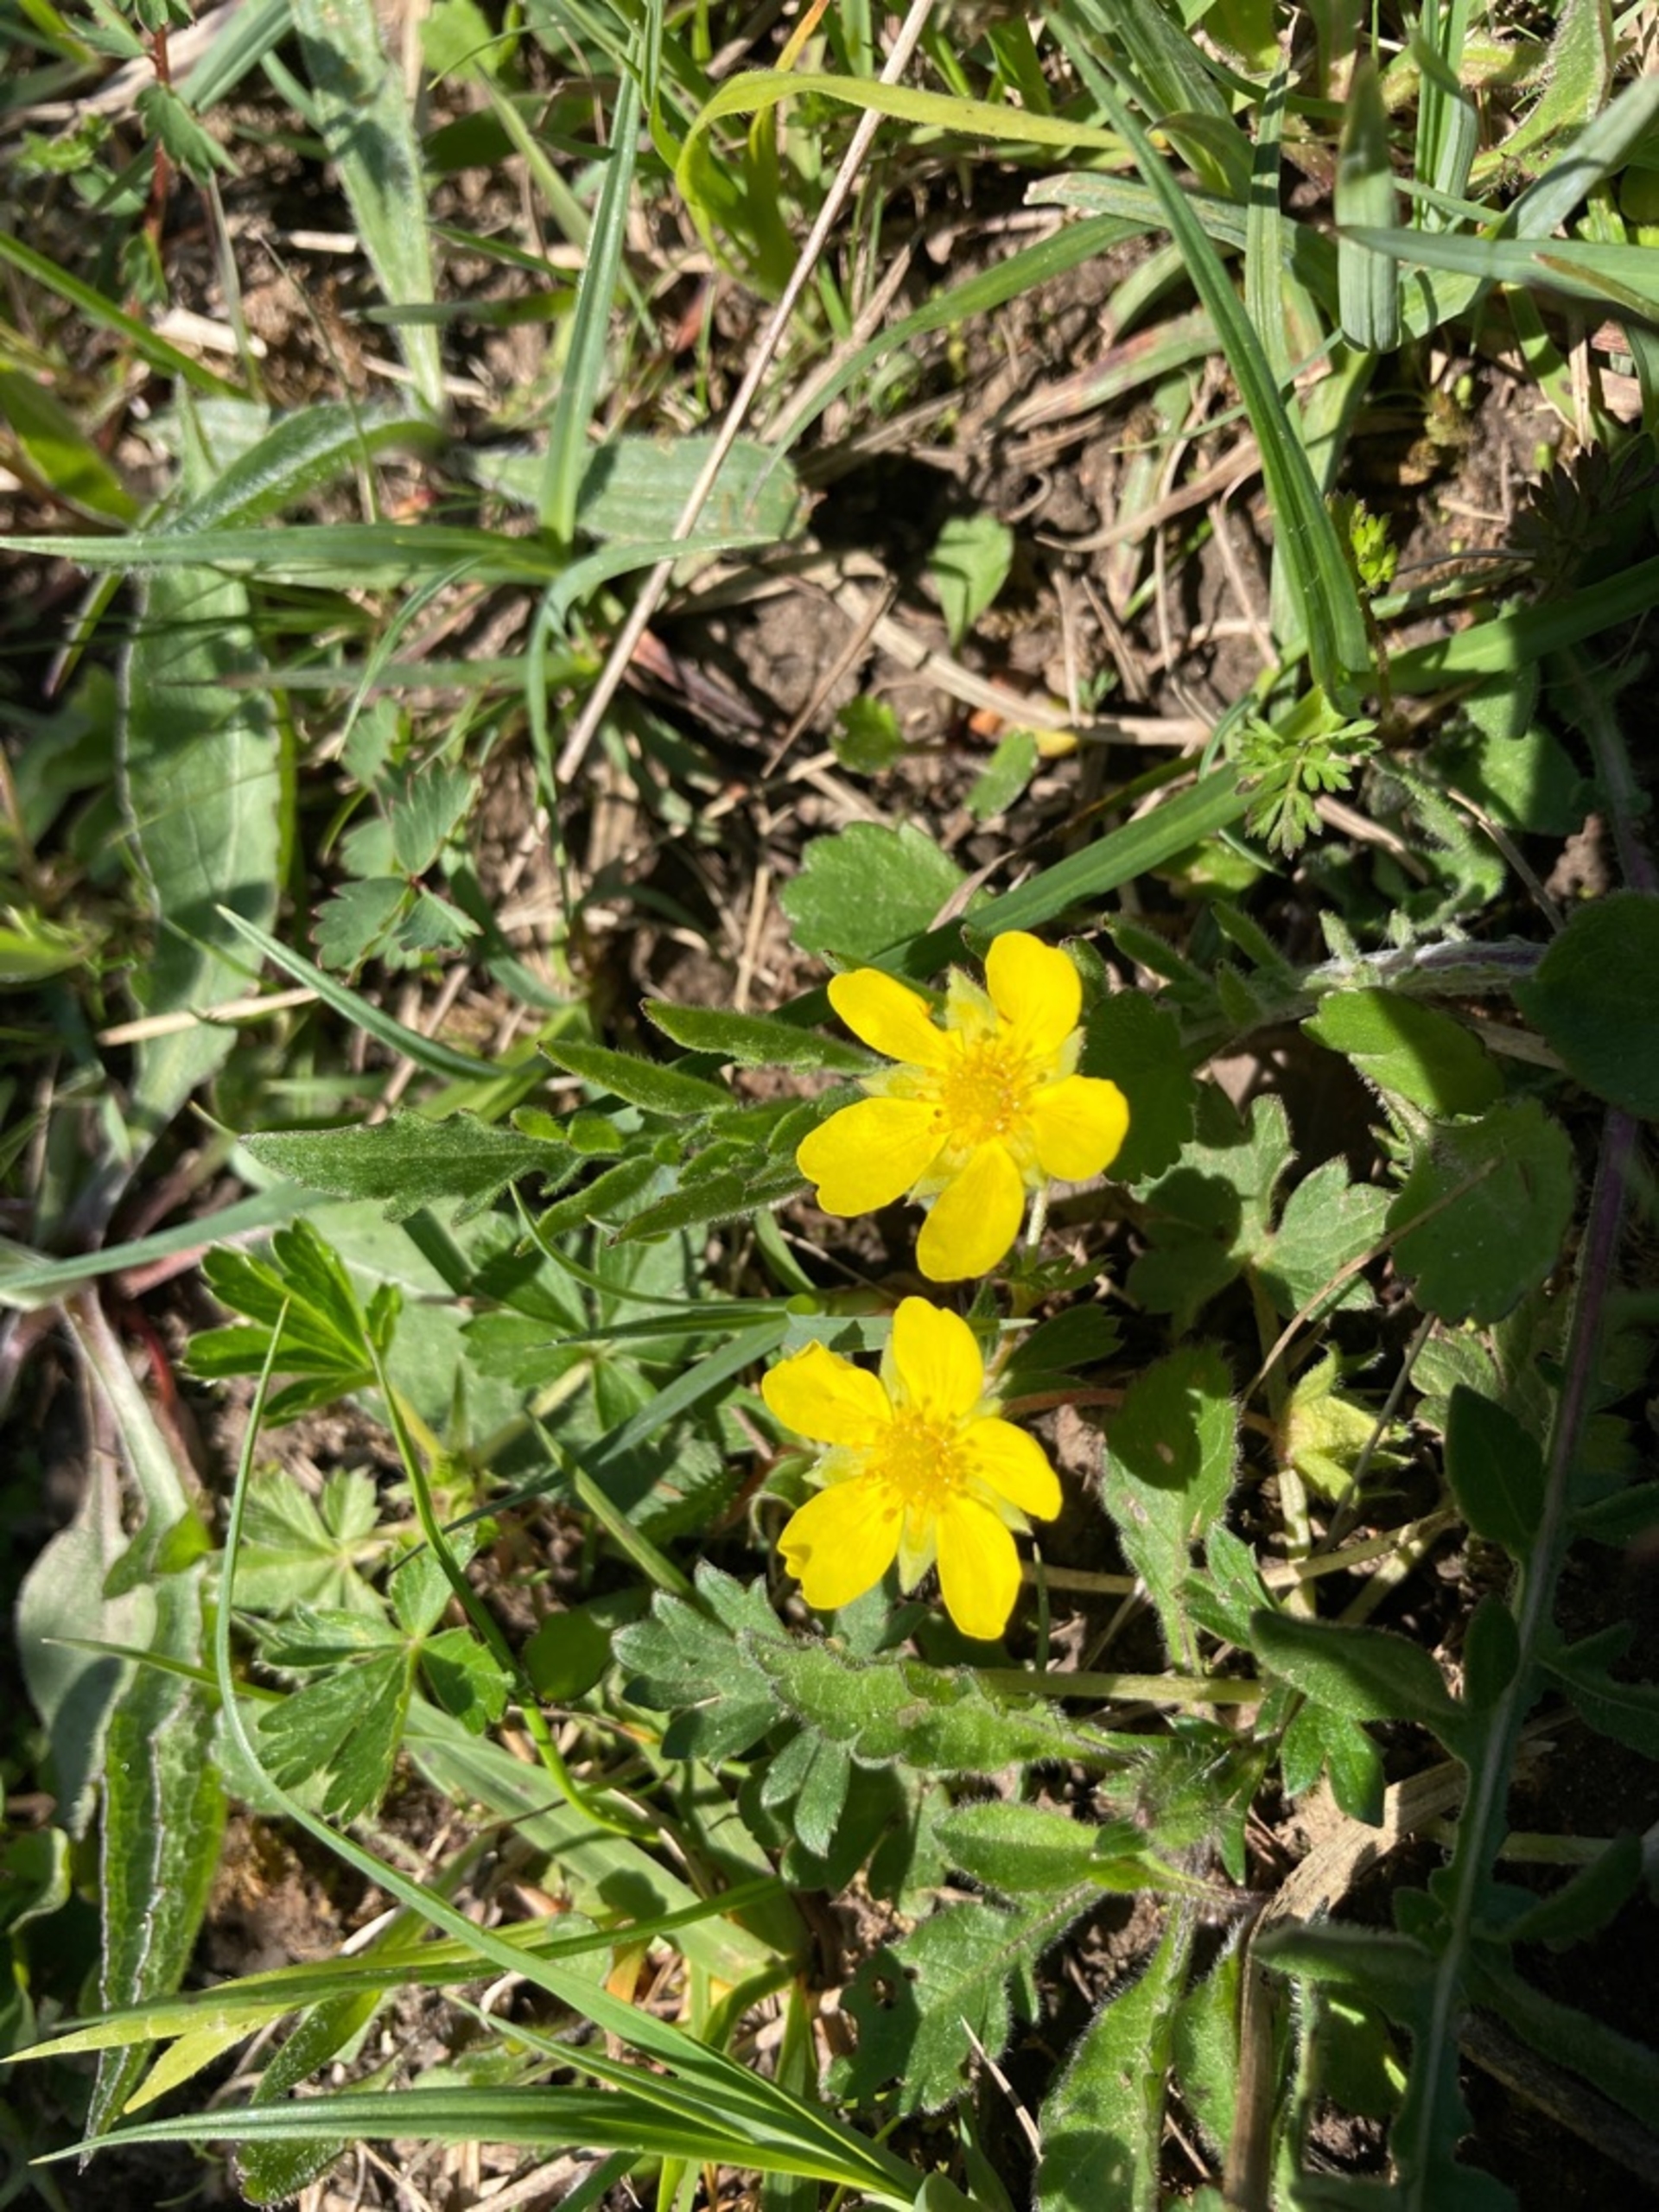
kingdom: Plantae
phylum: Tracheophyta
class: Magnoliopsida
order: Rosales
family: Rosaceae
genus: Potentilla
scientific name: Potentilla verna
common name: Vår-potentil
